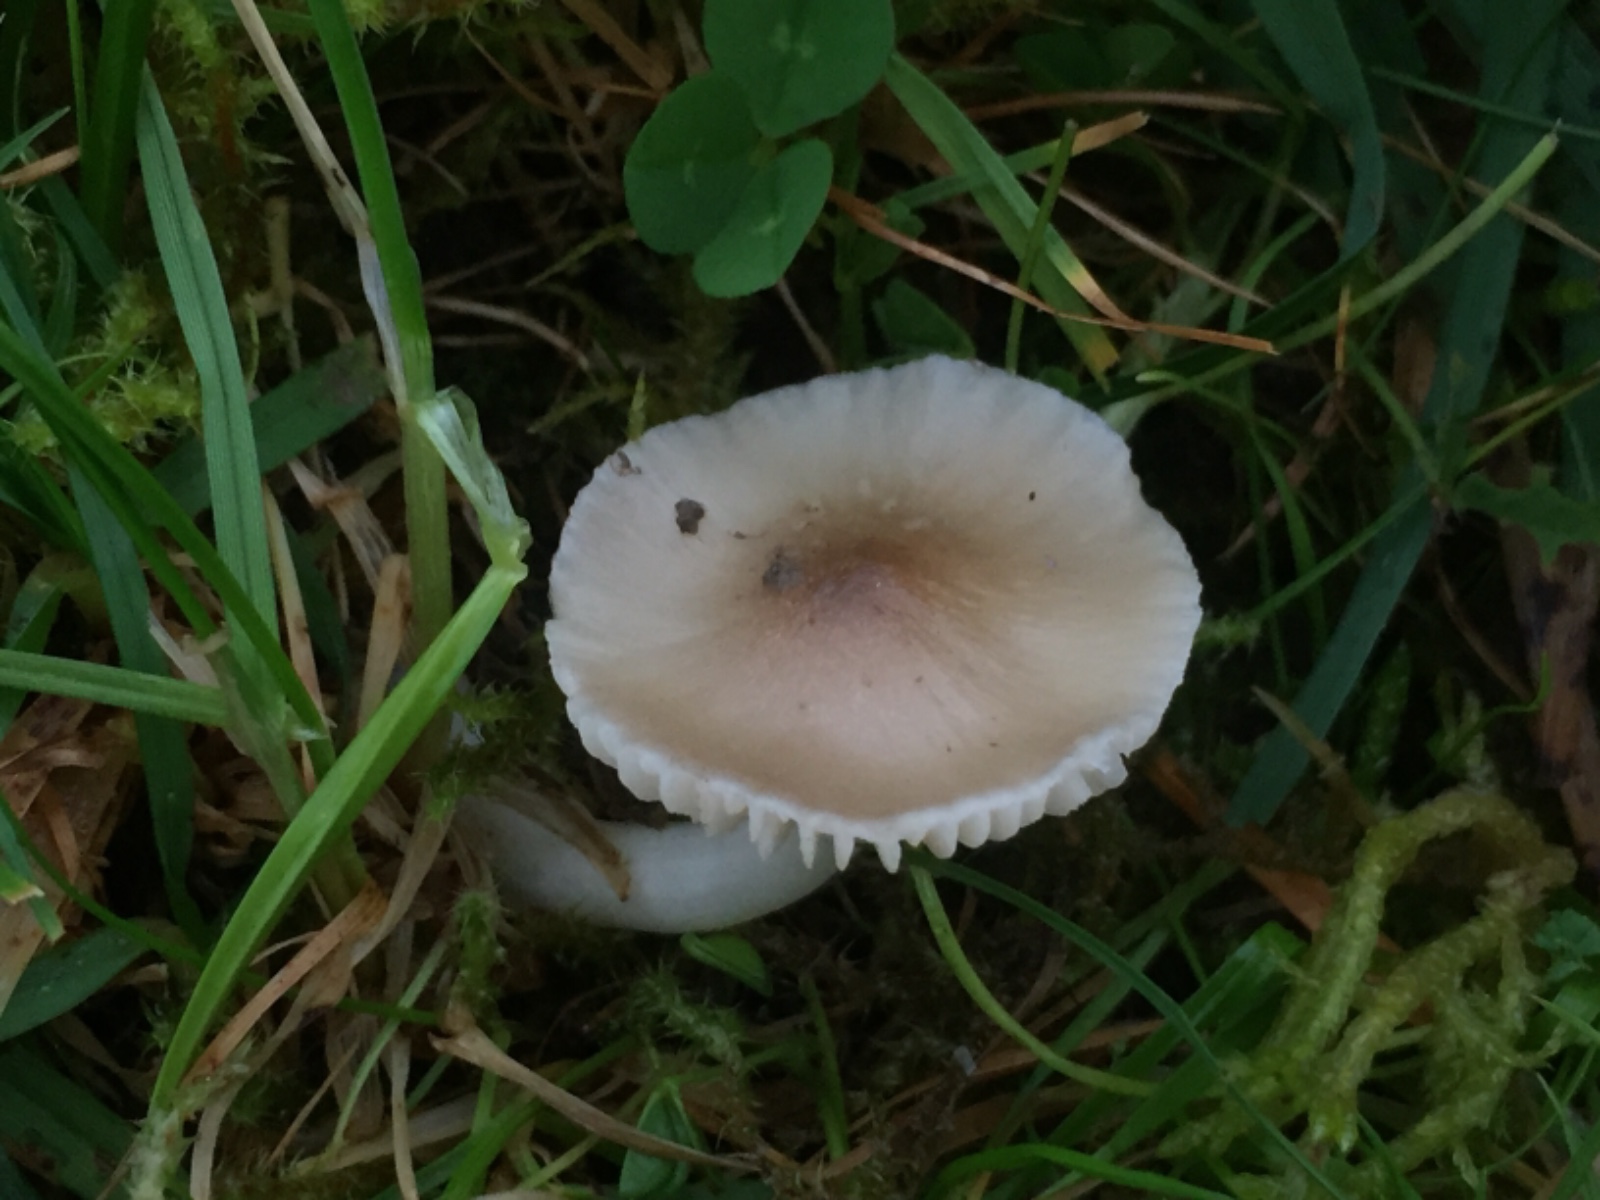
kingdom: Fungi
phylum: Basidiomycota
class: Agaricomycetes
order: Agaricales
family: Hygrophoraceae
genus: Cuphophyllus
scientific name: Cuphophyllus fornicatus
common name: gråbrun vokshat
